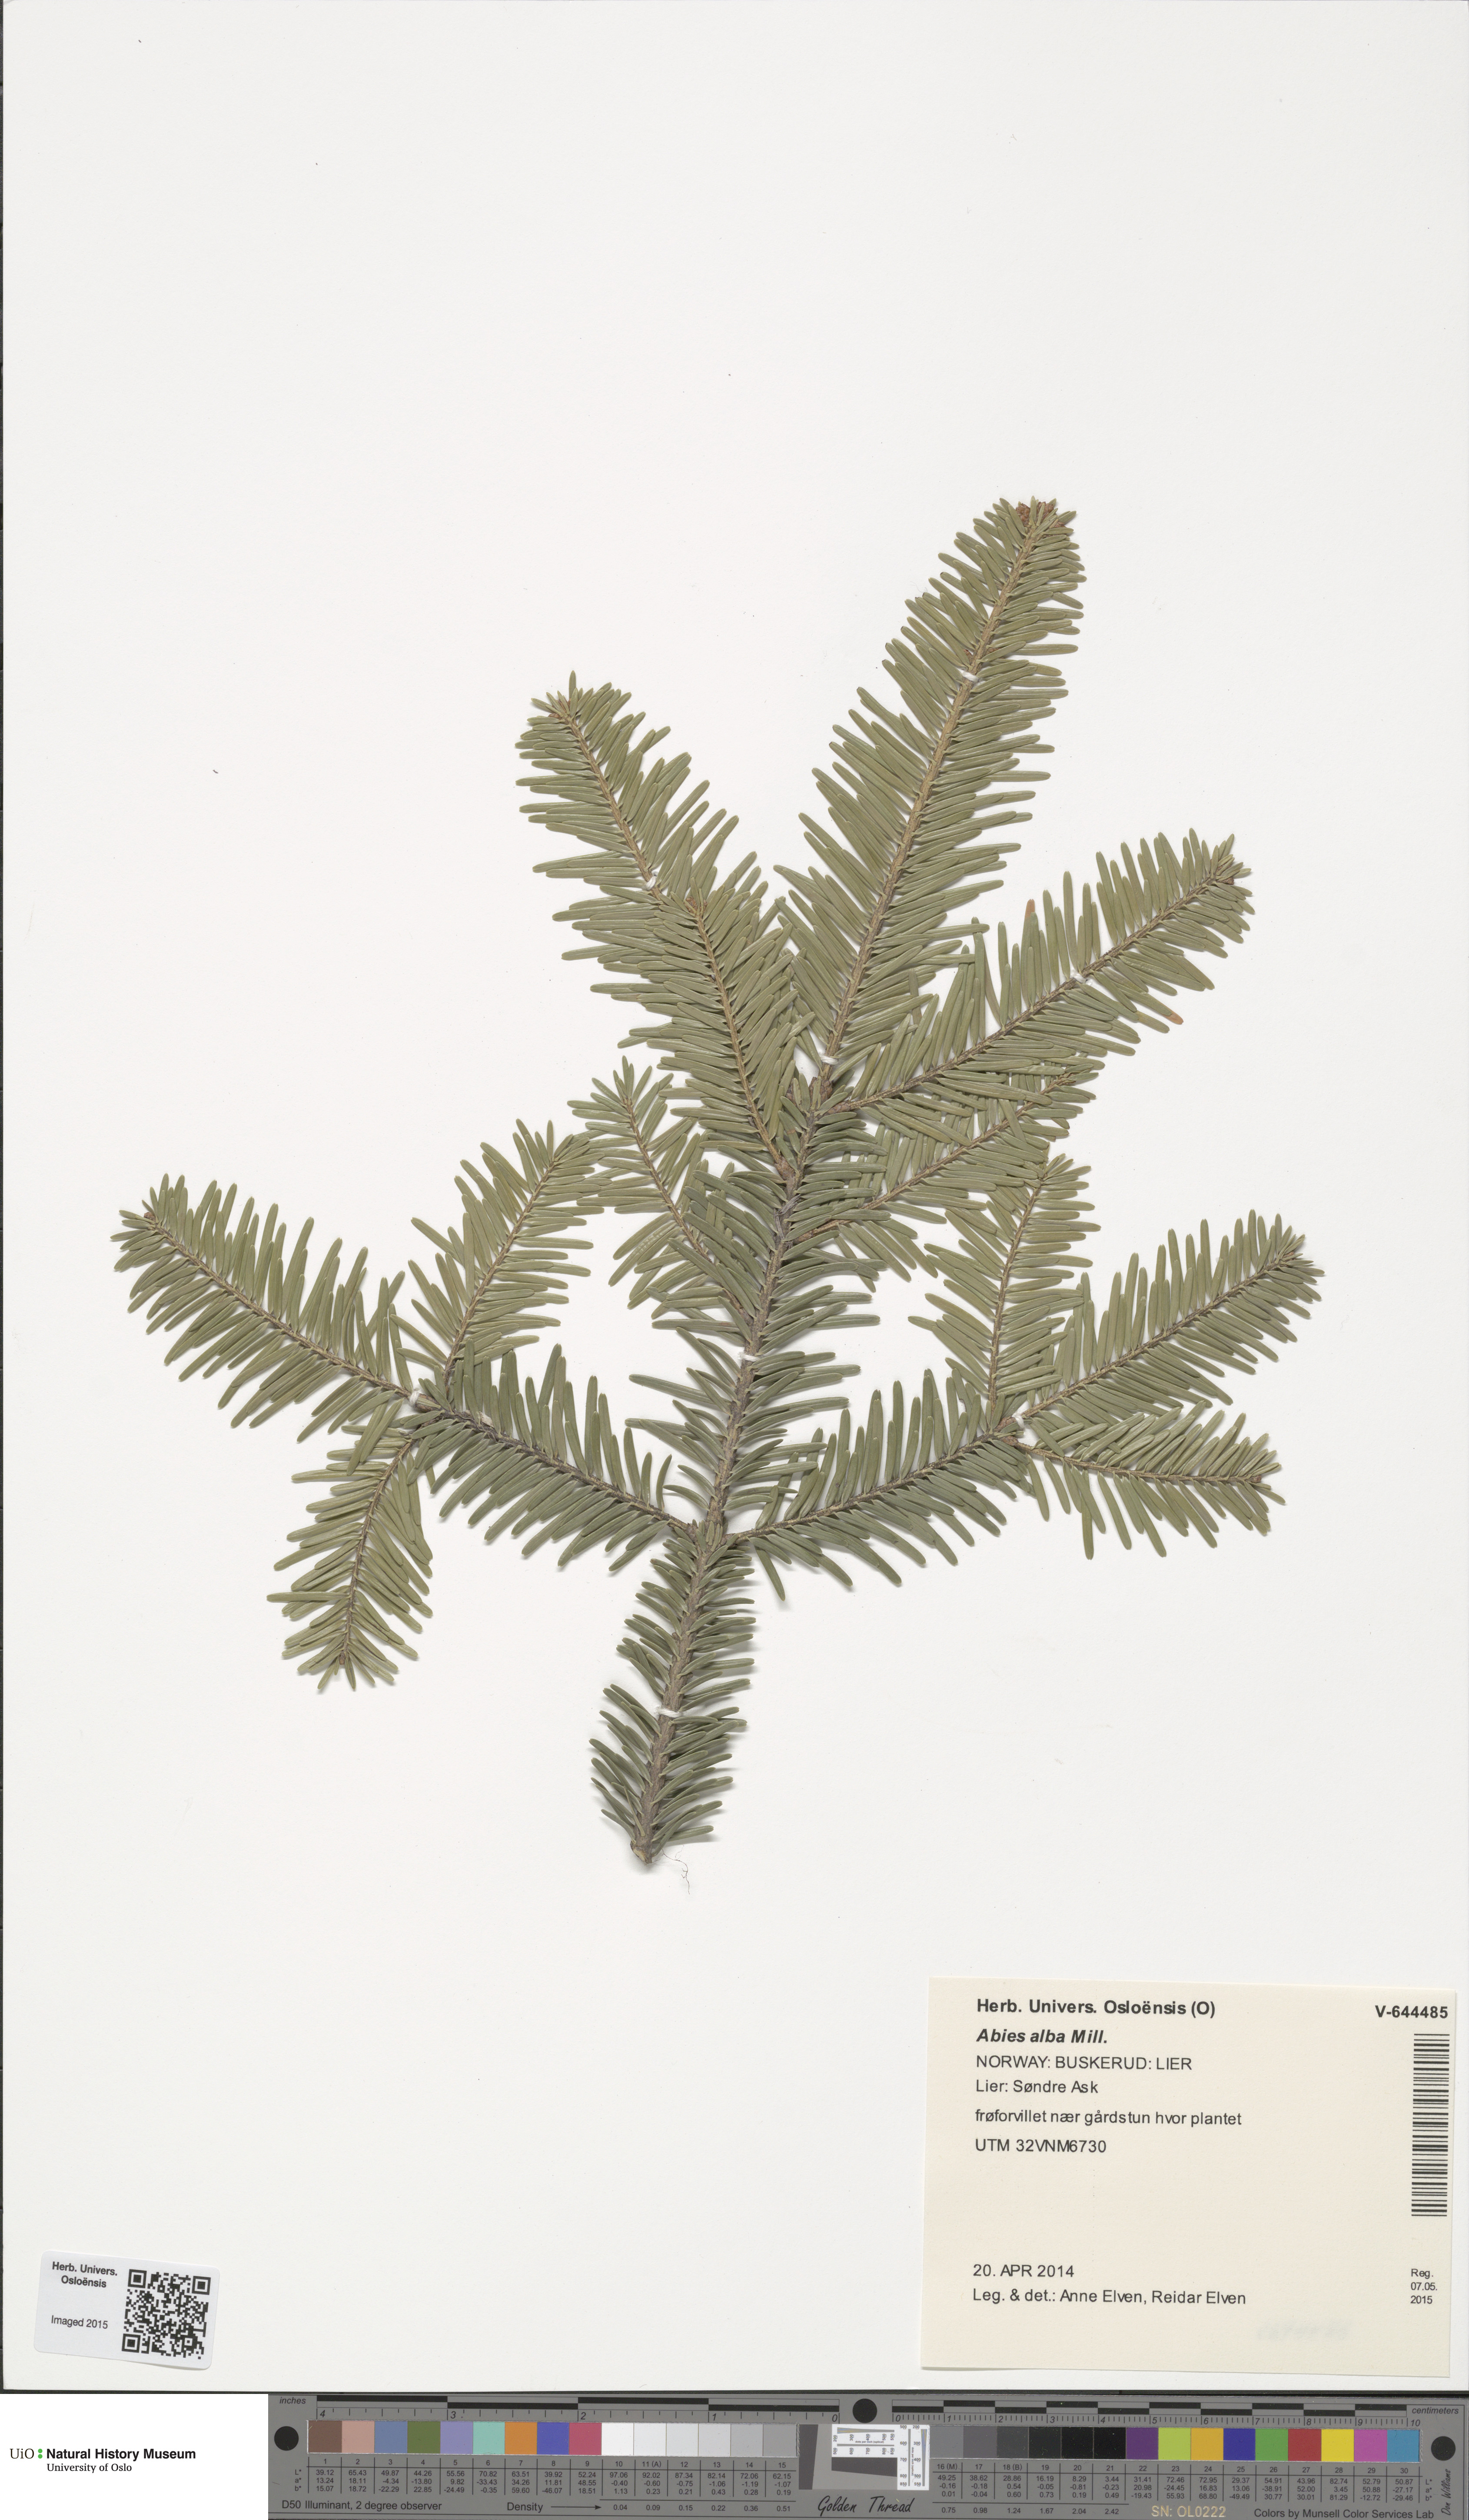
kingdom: Plantae
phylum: Tracheophyta
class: Pinopsida
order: Pinales
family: Pinaceae
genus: Abies
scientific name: Abies alba
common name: Silver fir
